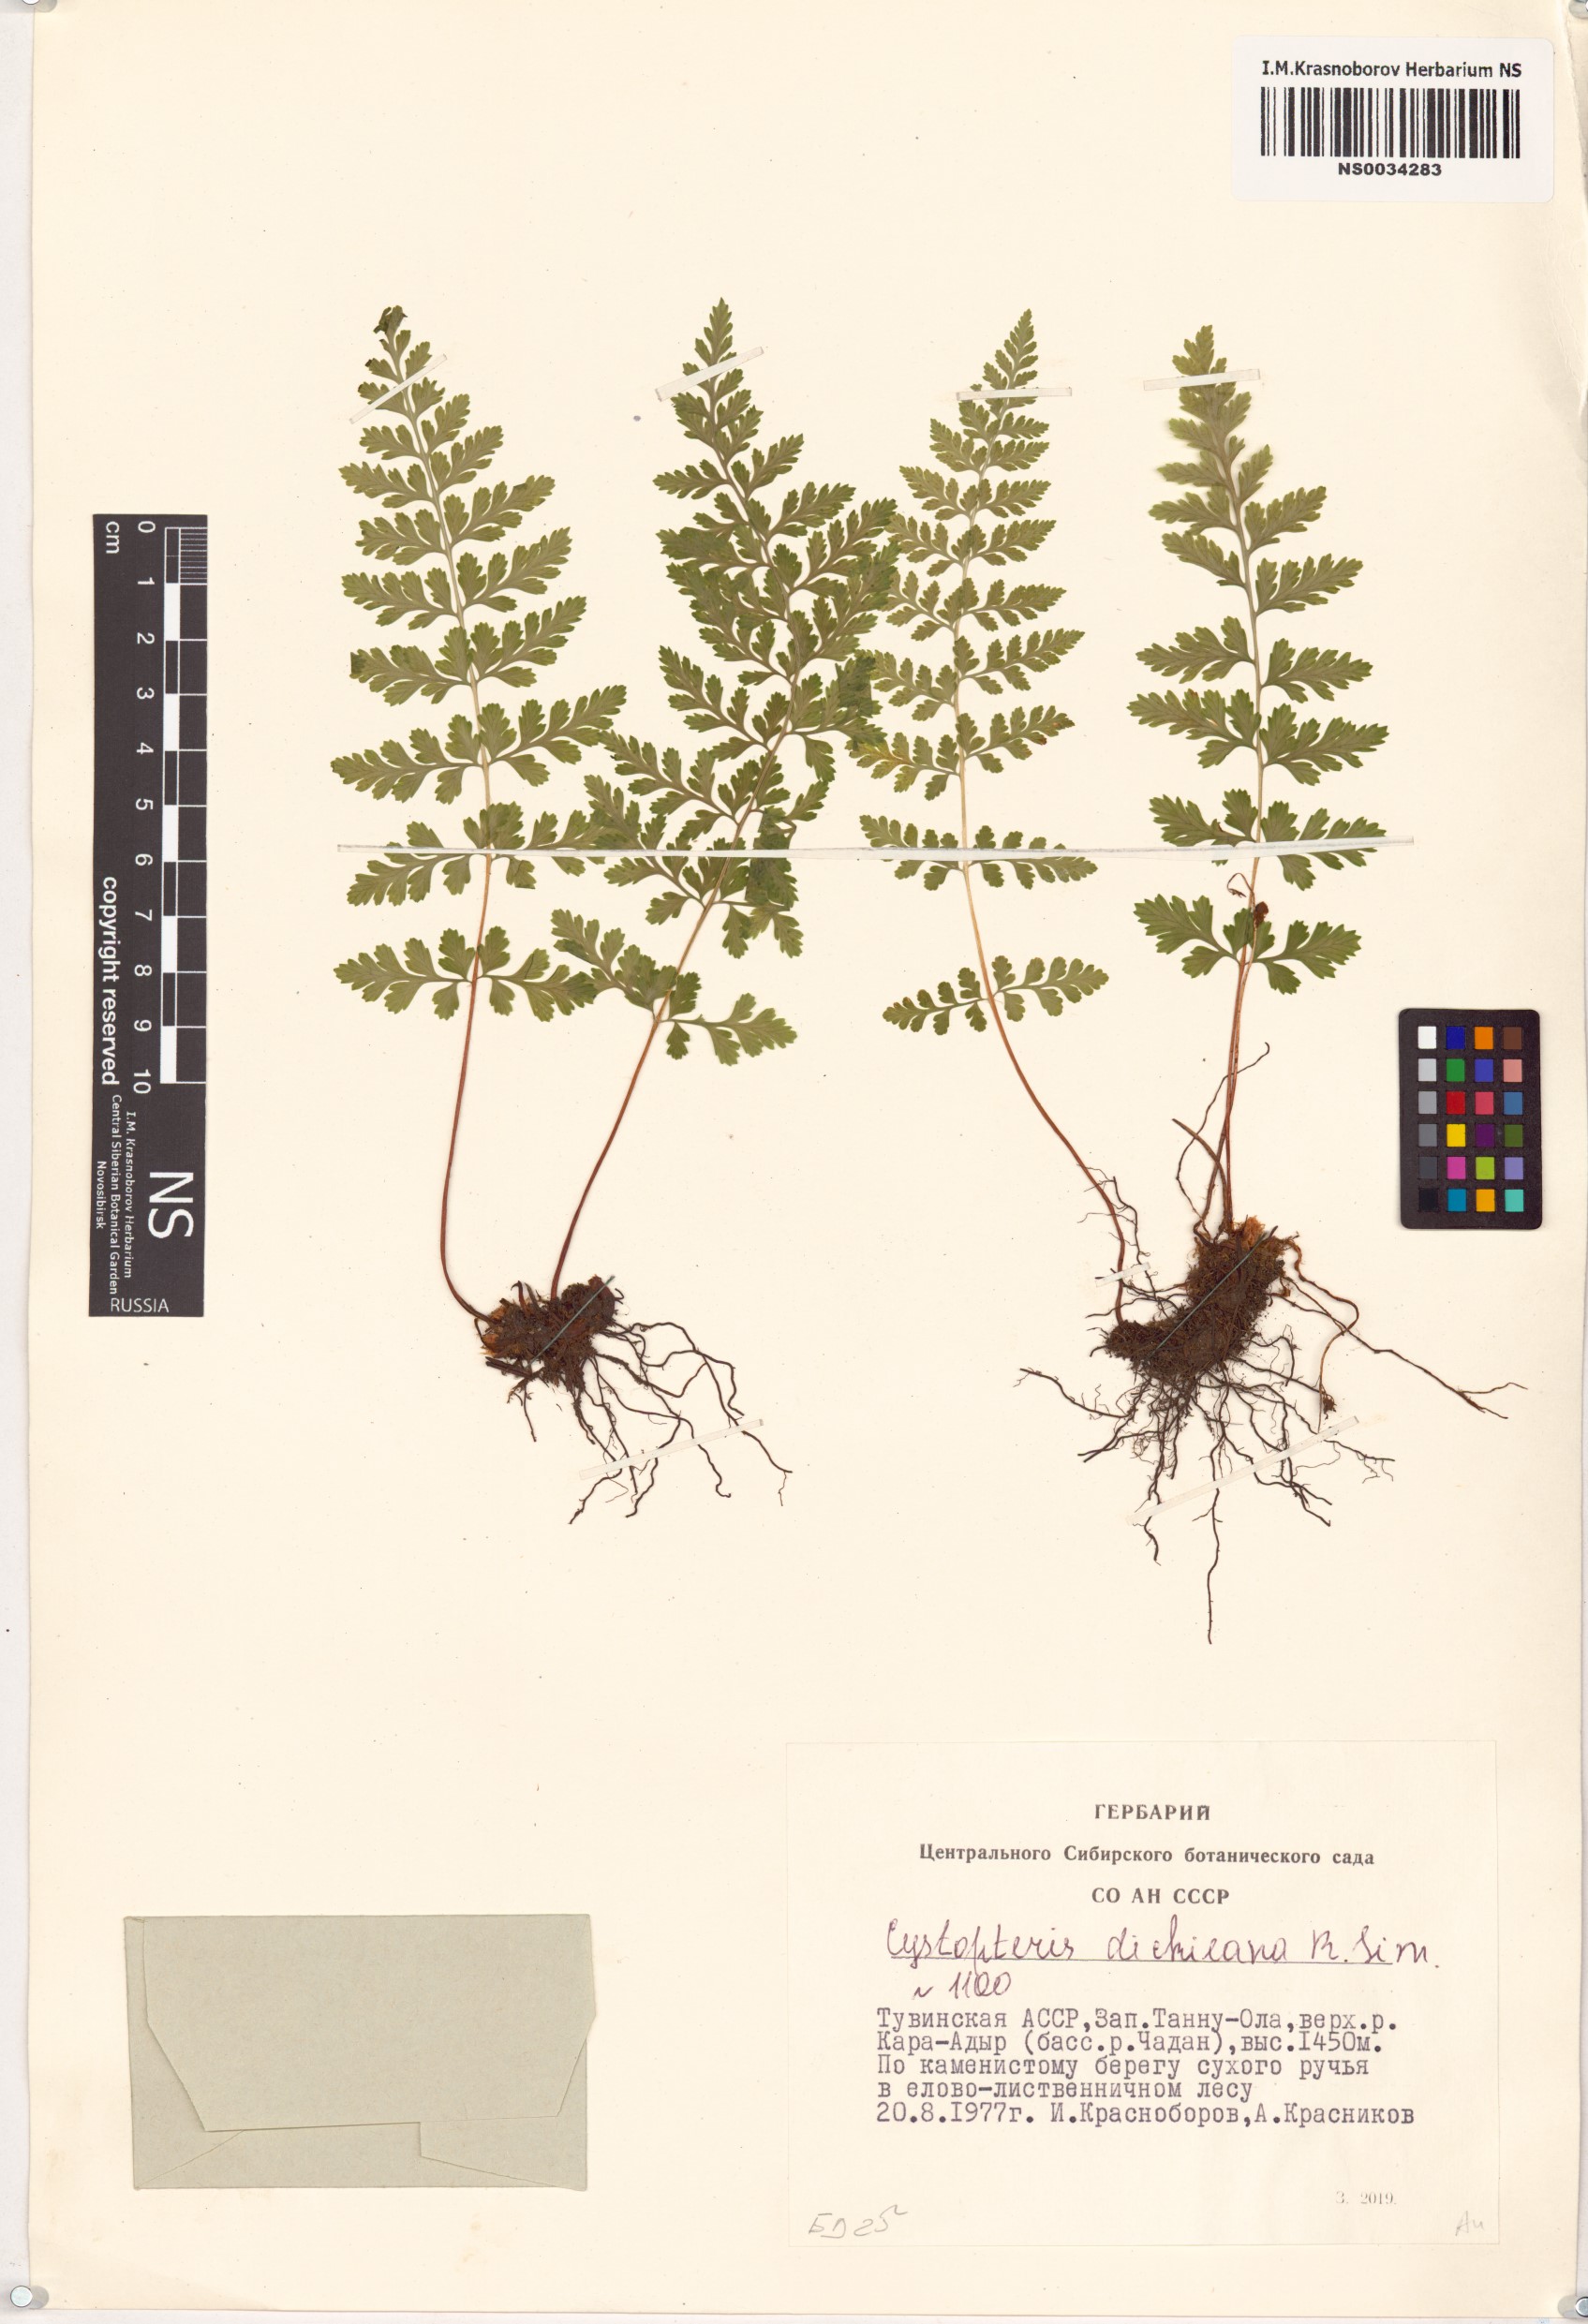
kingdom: Plantae
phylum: Tracheophyta
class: Polypodiopsida
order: Polypodiales
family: Cystopteridaceae
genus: Cystopteris
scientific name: Cystopteris dickieana
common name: Dickie's bladder-fern
